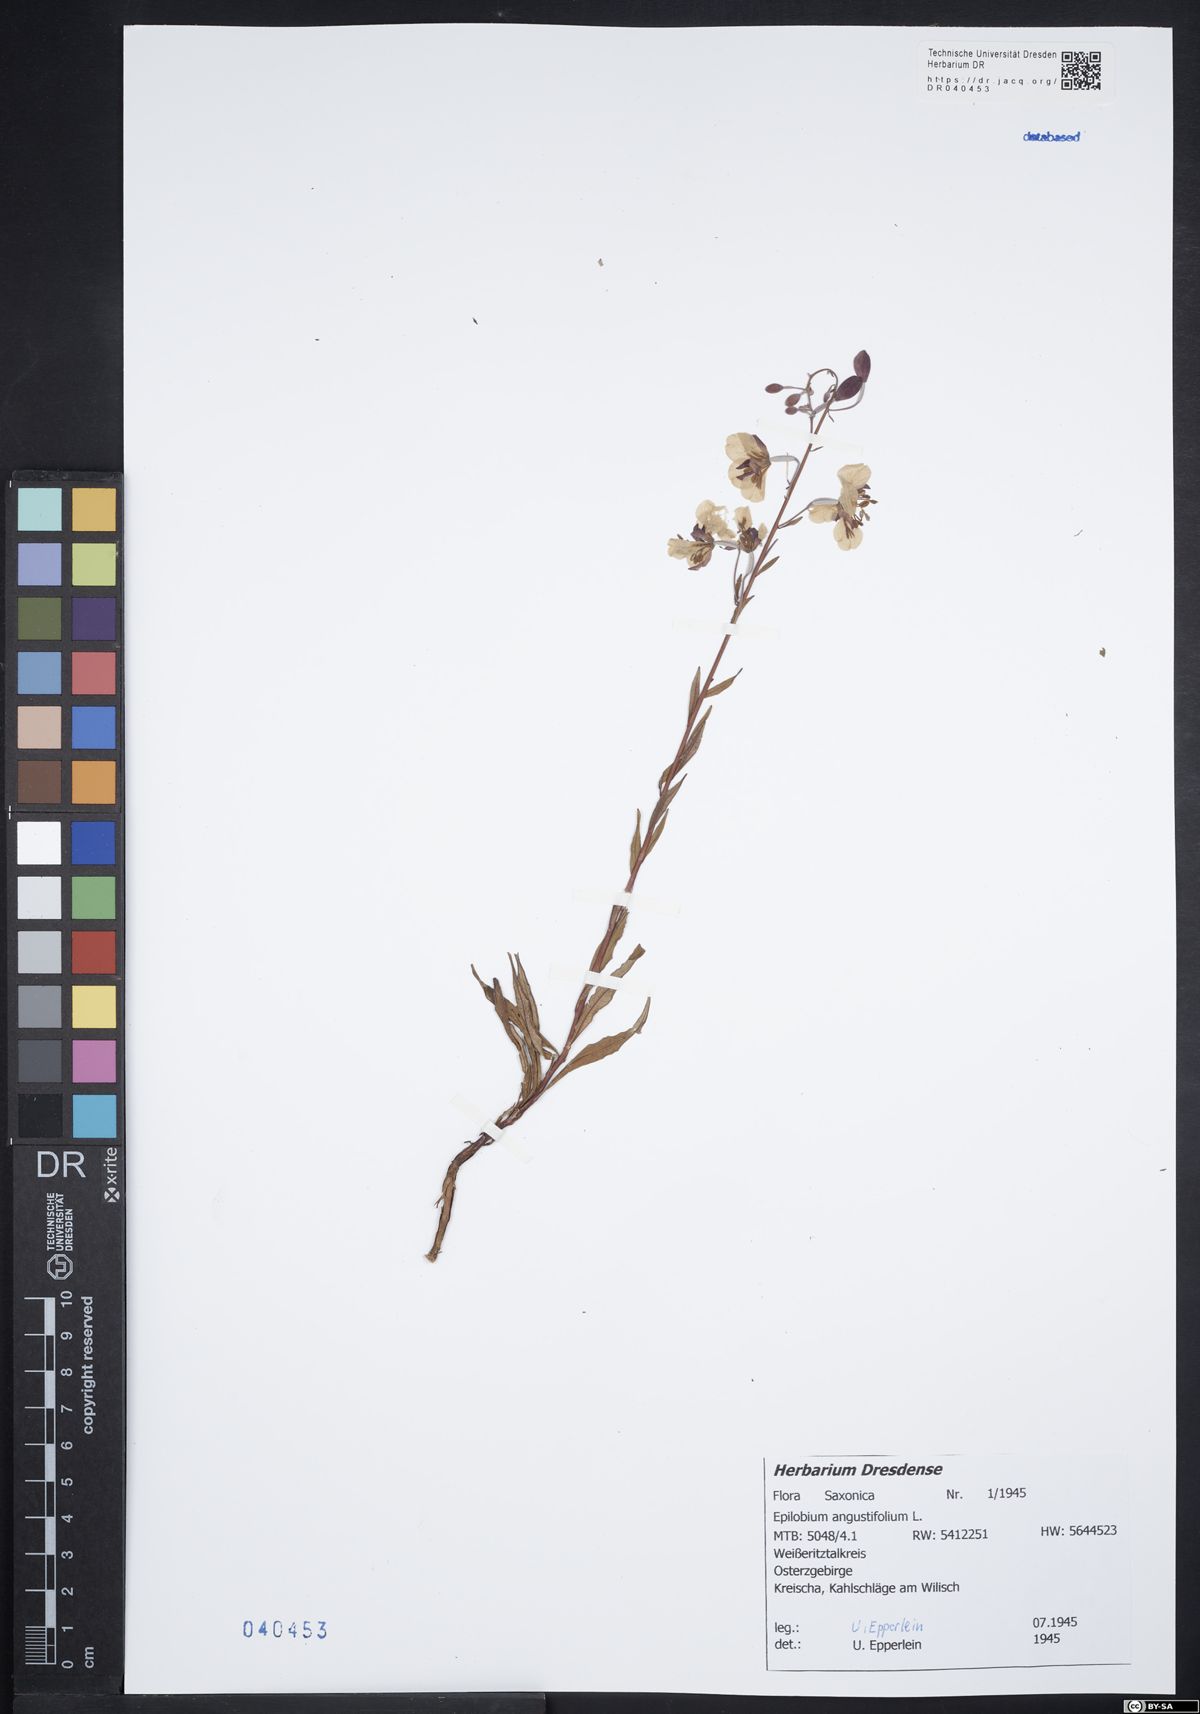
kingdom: Plantae
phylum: Tracheophyta
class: Magnoliopsida
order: Myrtales
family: Onagraceae
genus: Chamaenerion
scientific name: Chamaenerion angustifolium
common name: Fireweed
